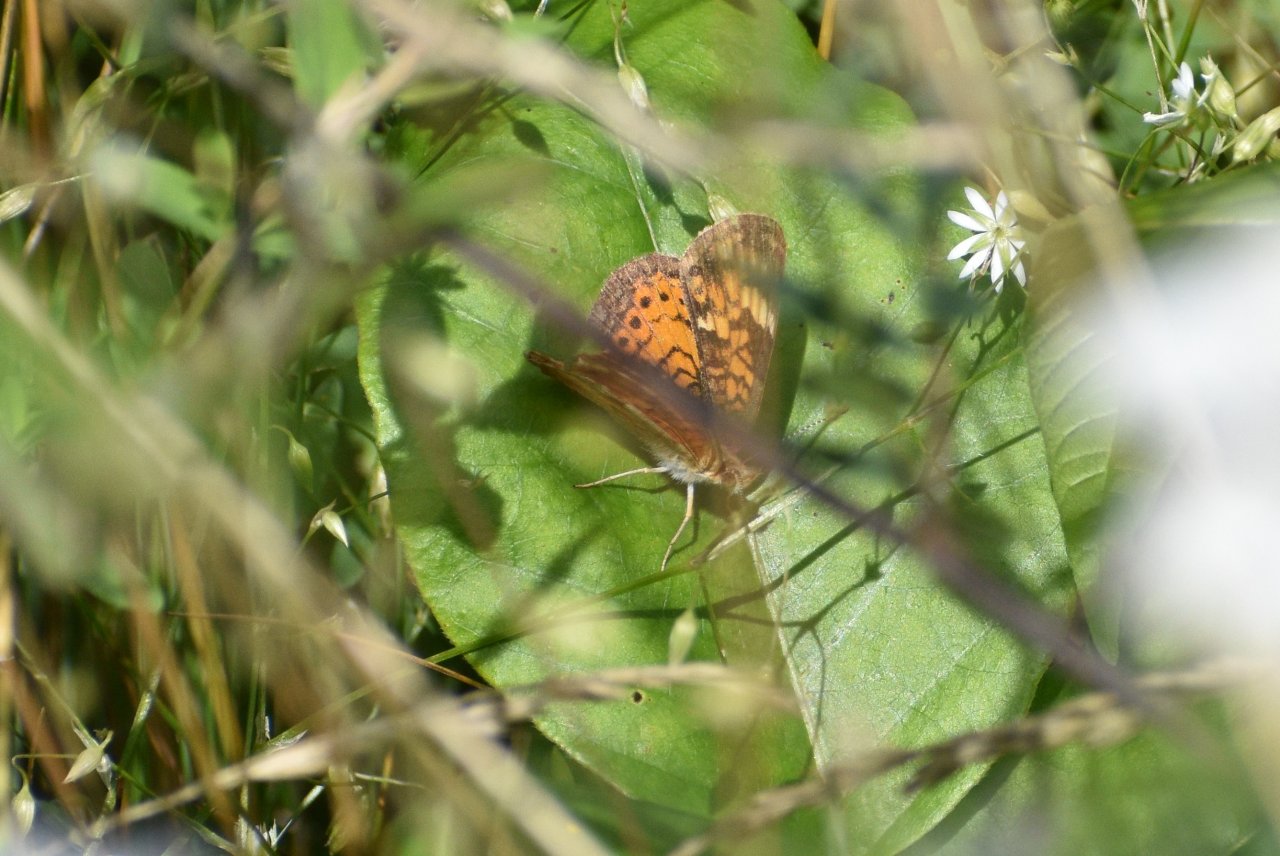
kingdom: Animalia
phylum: Arthropoda
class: Insecta
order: Lepidoptera
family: Nymphalidae
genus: Phyciodes
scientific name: Phyciodes tharos
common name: Northern Crescent
